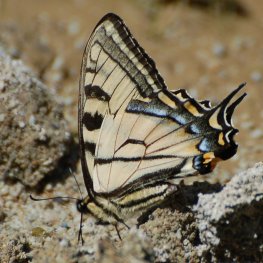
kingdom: Animalia
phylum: Arthropoda
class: Insecta
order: Lepidoptera
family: Papilionidae
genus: Pterourus
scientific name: Pterourus canadensis
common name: Canadian Tiger Swallowtail
